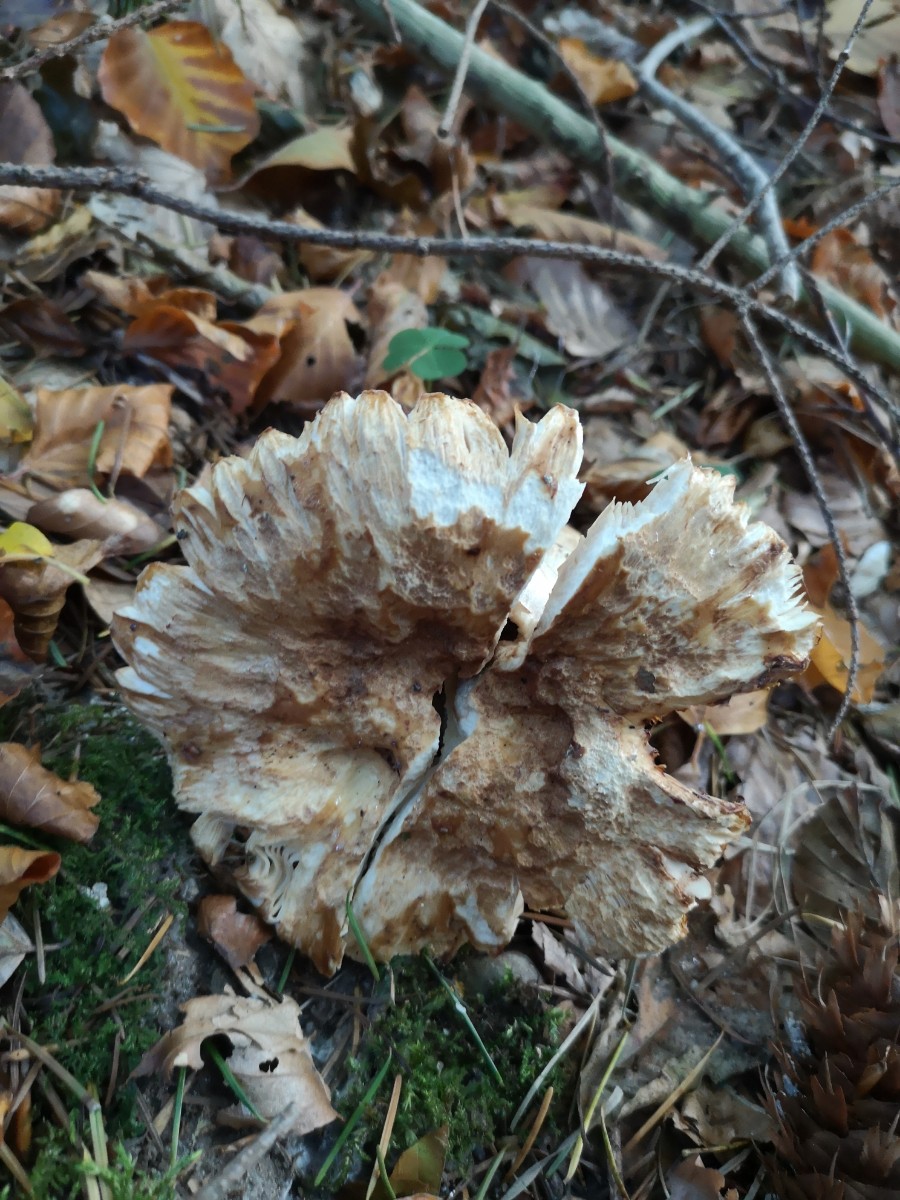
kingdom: Fungi
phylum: Basidiomycota
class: Agaricomycetes
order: Russulales
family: Russulaceae
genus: Russula
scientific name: Russula grata
